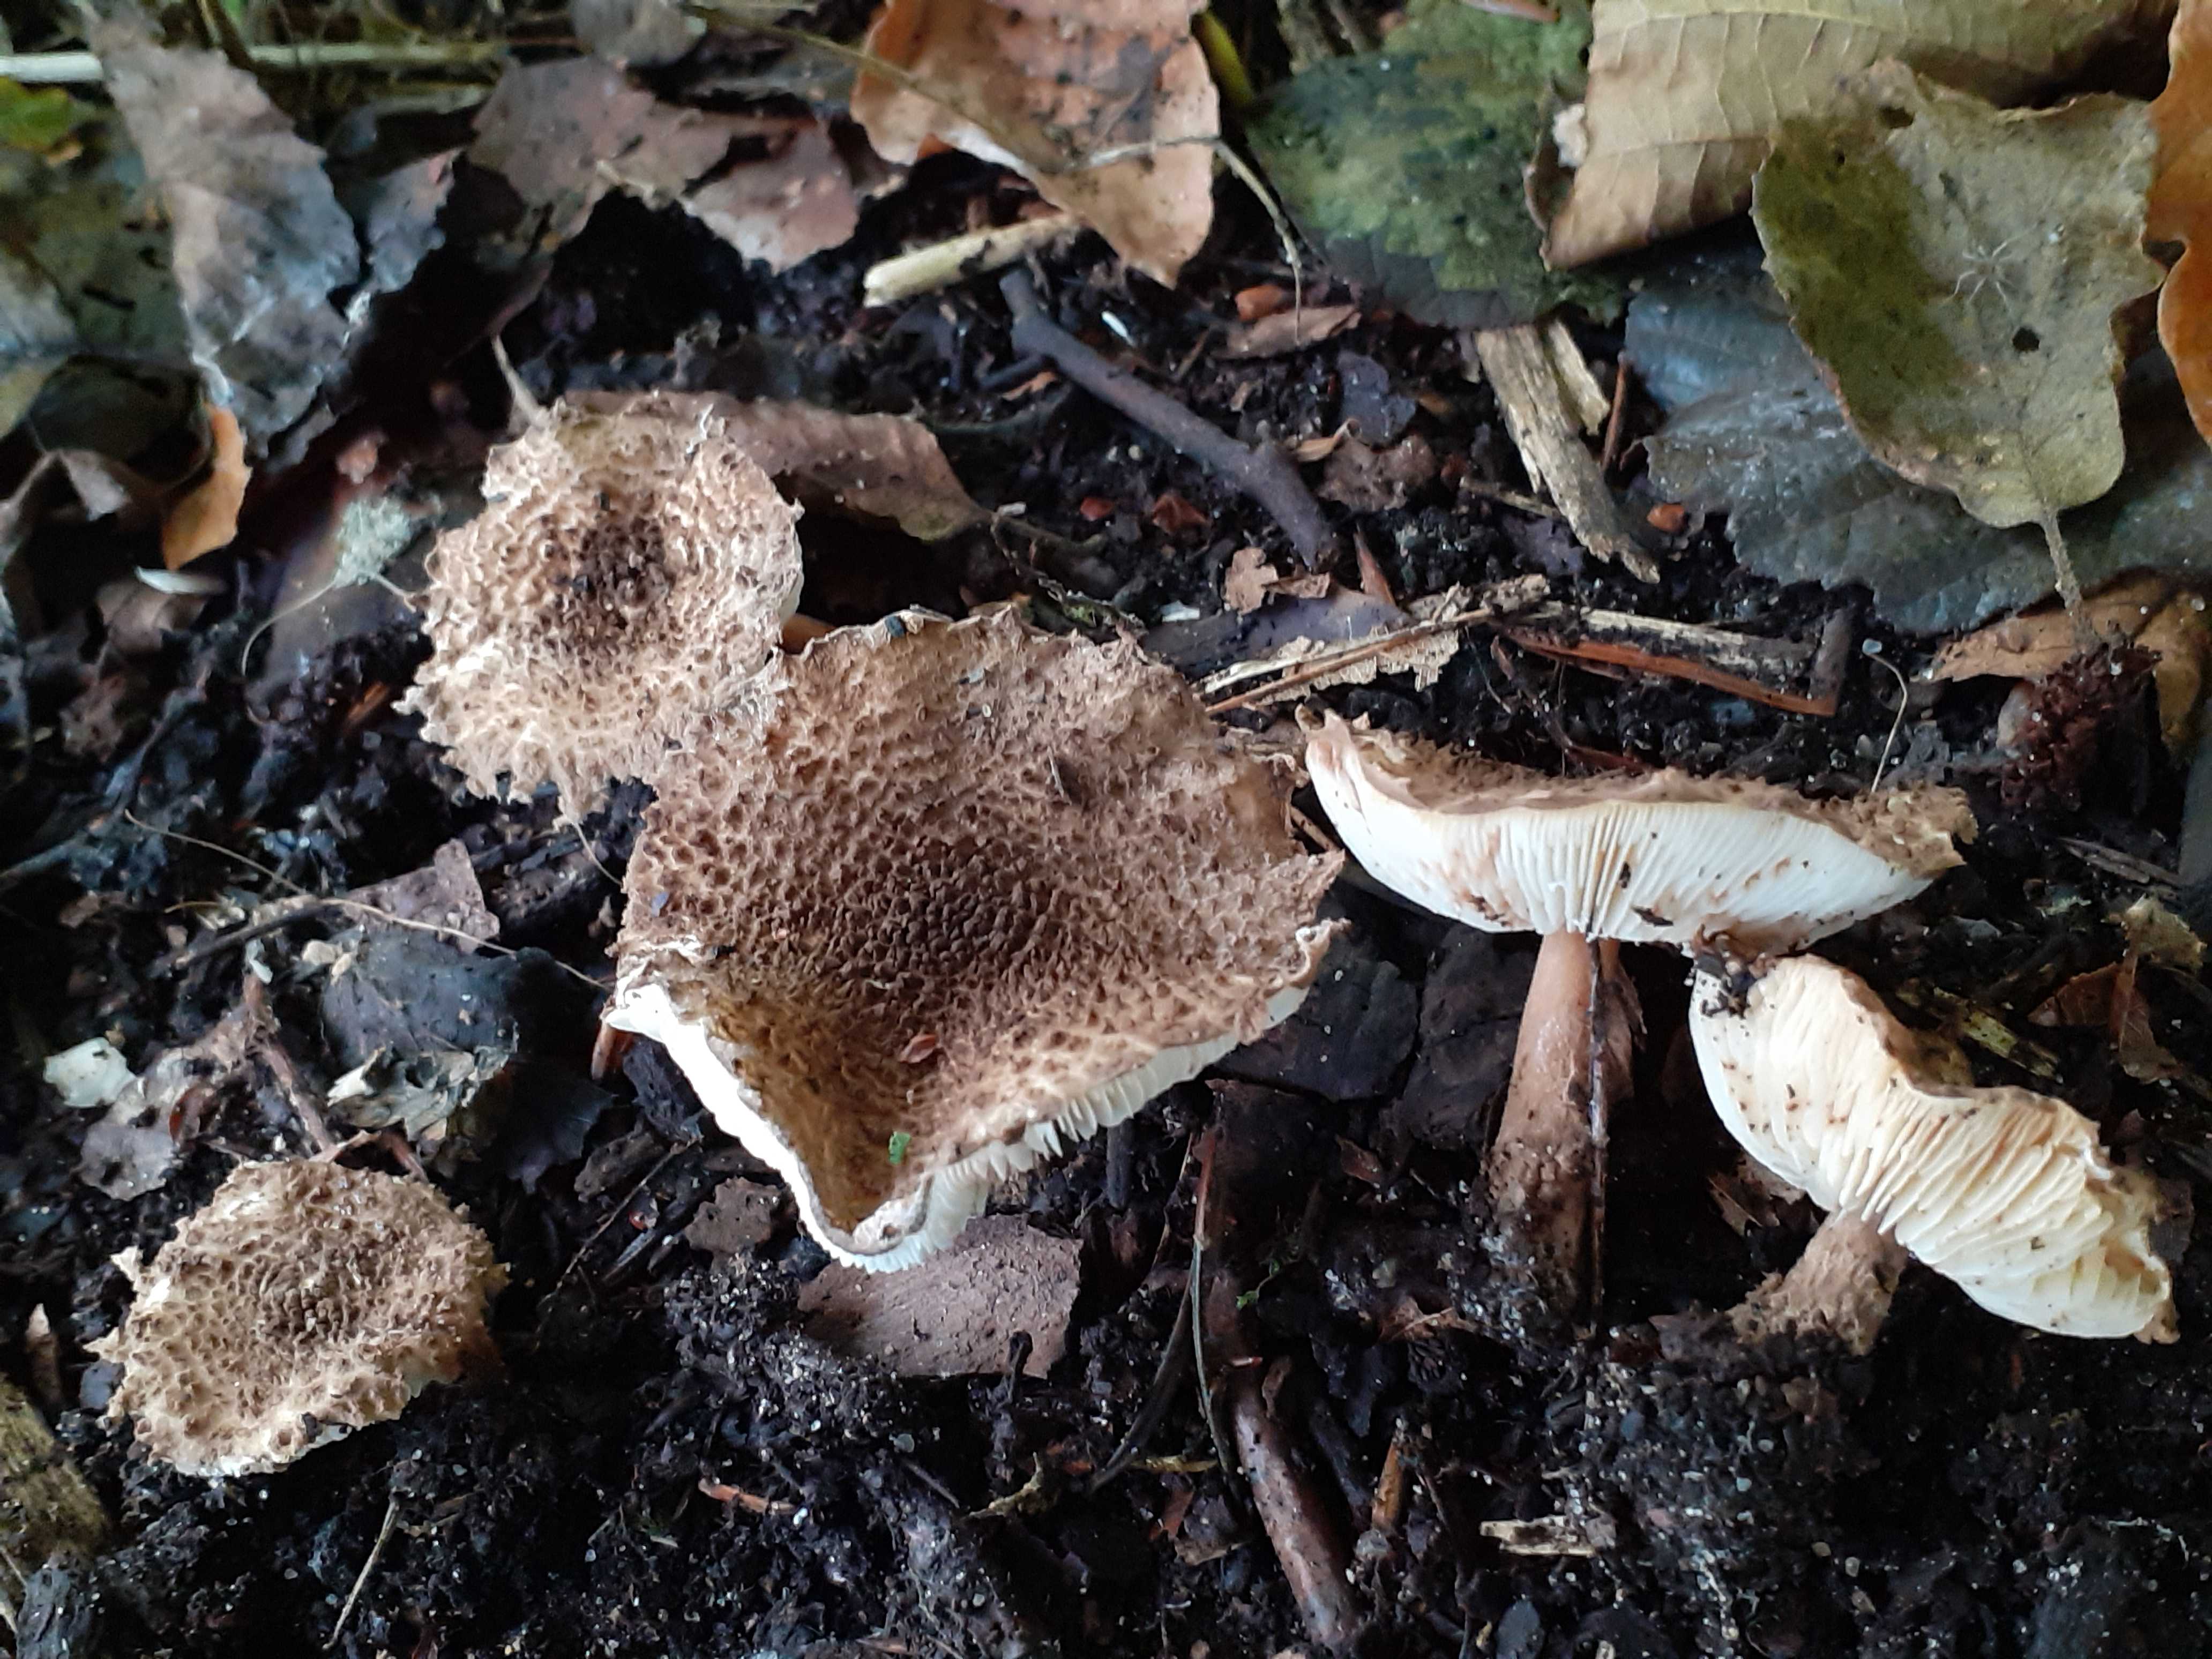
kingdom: Fungi
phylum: Basidiomycota
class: Agaricomycetes
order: Agaricales
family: Agaricaceae
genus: Echinoderma
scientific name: Echinoderma jacobi
